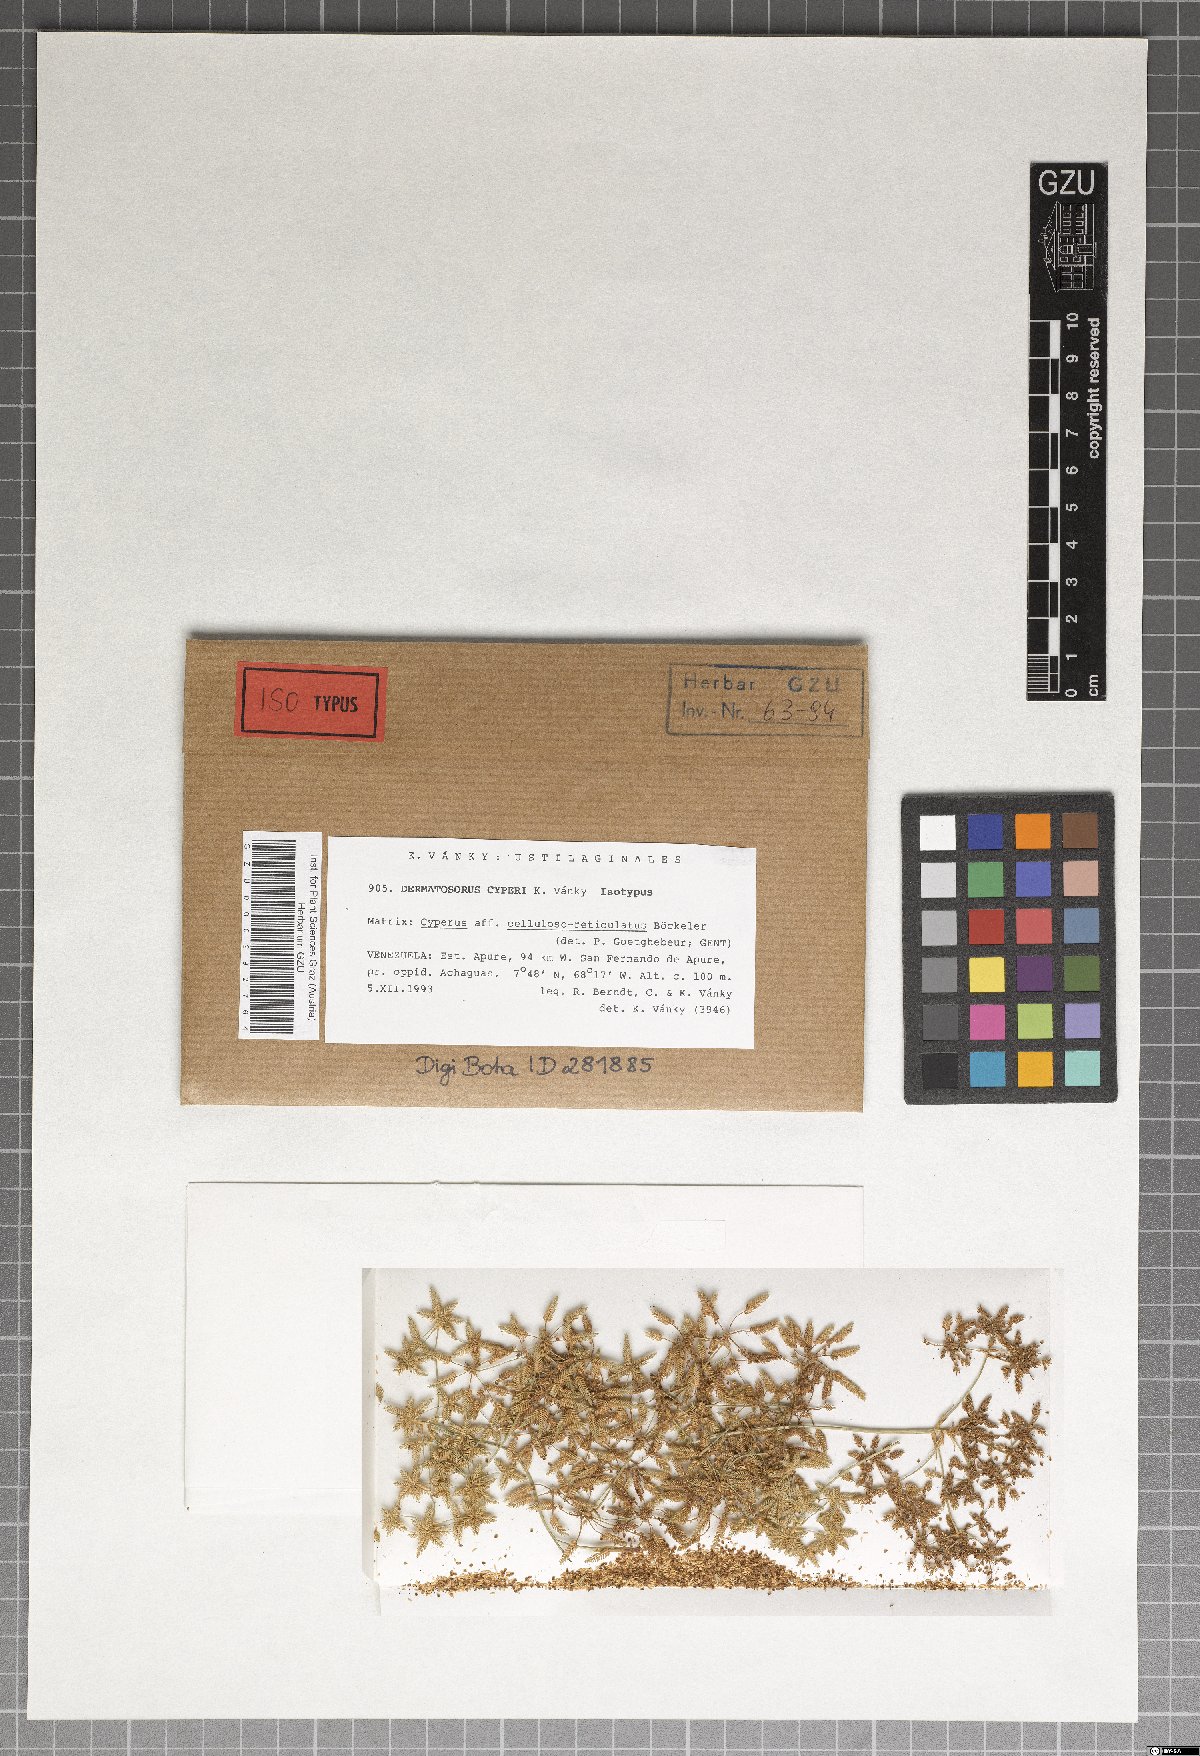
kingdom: Fungi
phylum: Basidiomycota
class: Ustilaginomycetes
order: Ustilaginales
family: Anthracoideaceae
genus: Dermatosorus
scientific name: Dermatosorus cyperi
